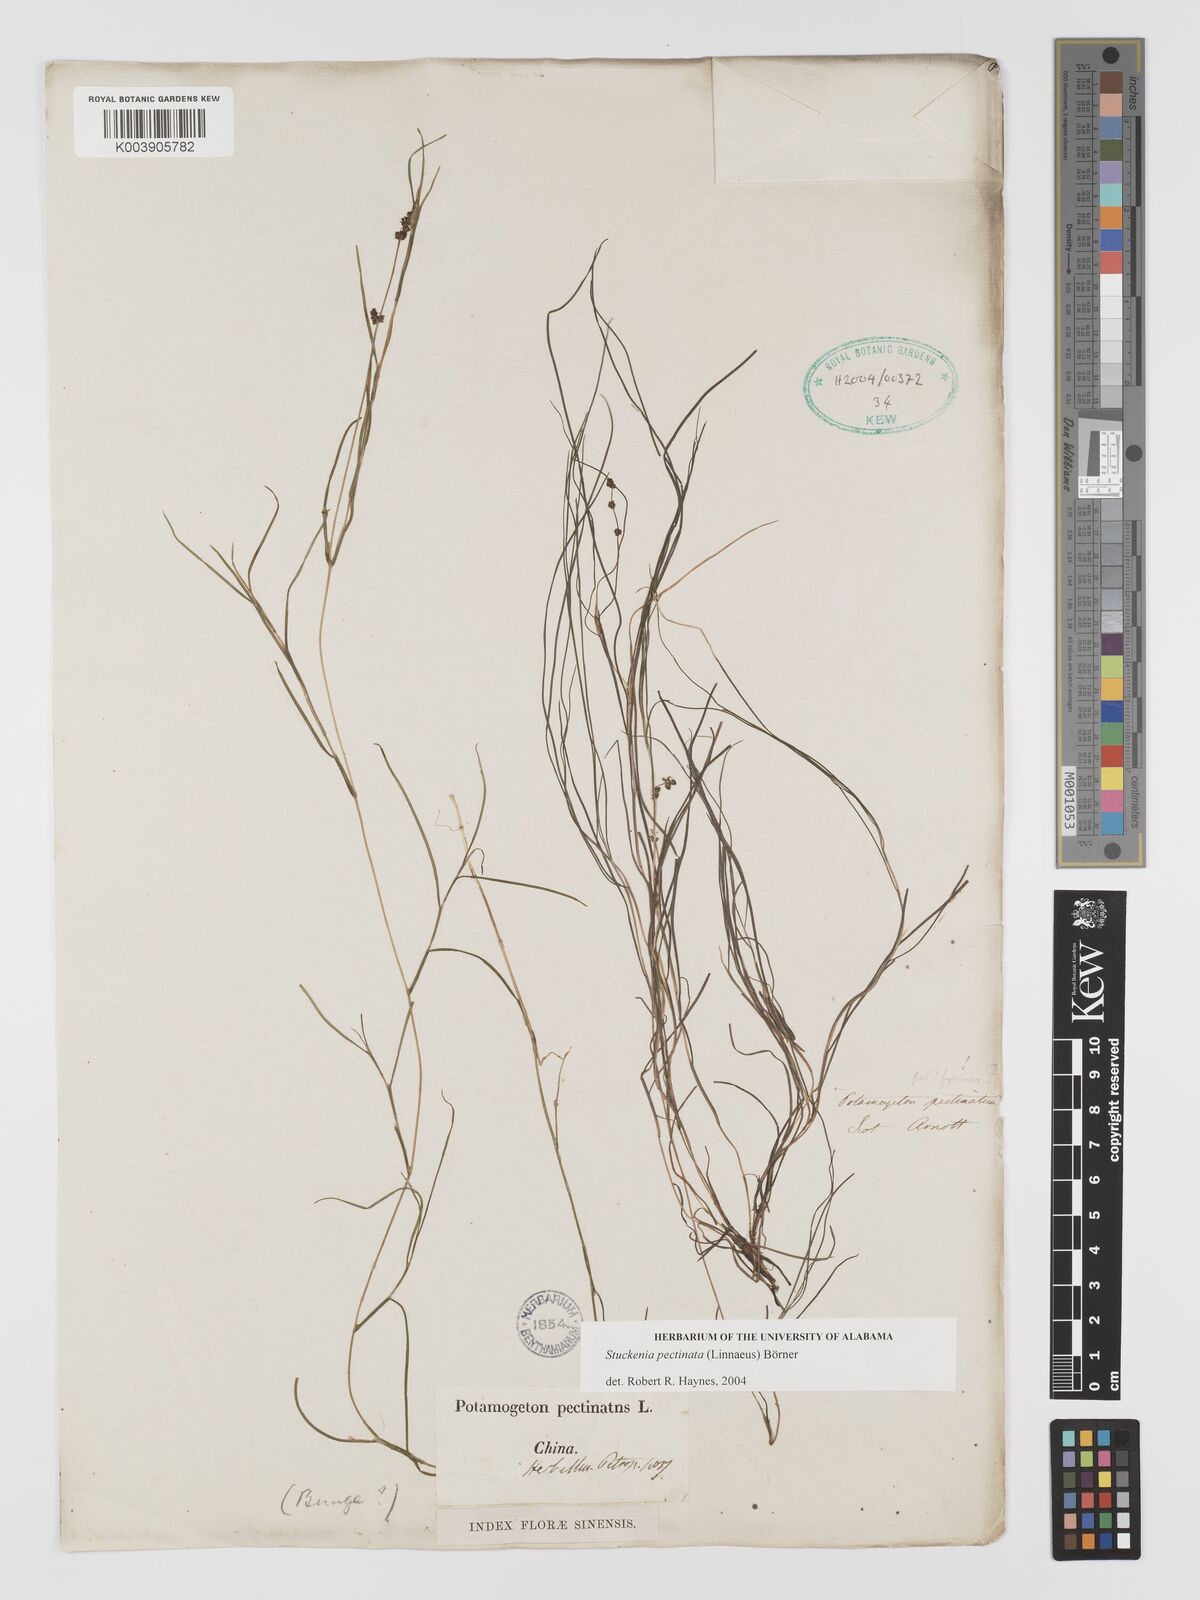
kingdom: Plantae
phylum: Tracheophyta
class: Liliopsida
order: Alismatales
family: Potamogetonaceae
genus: Stuckenia
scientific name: Stuckenia pectinata
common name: Sago pondweed
